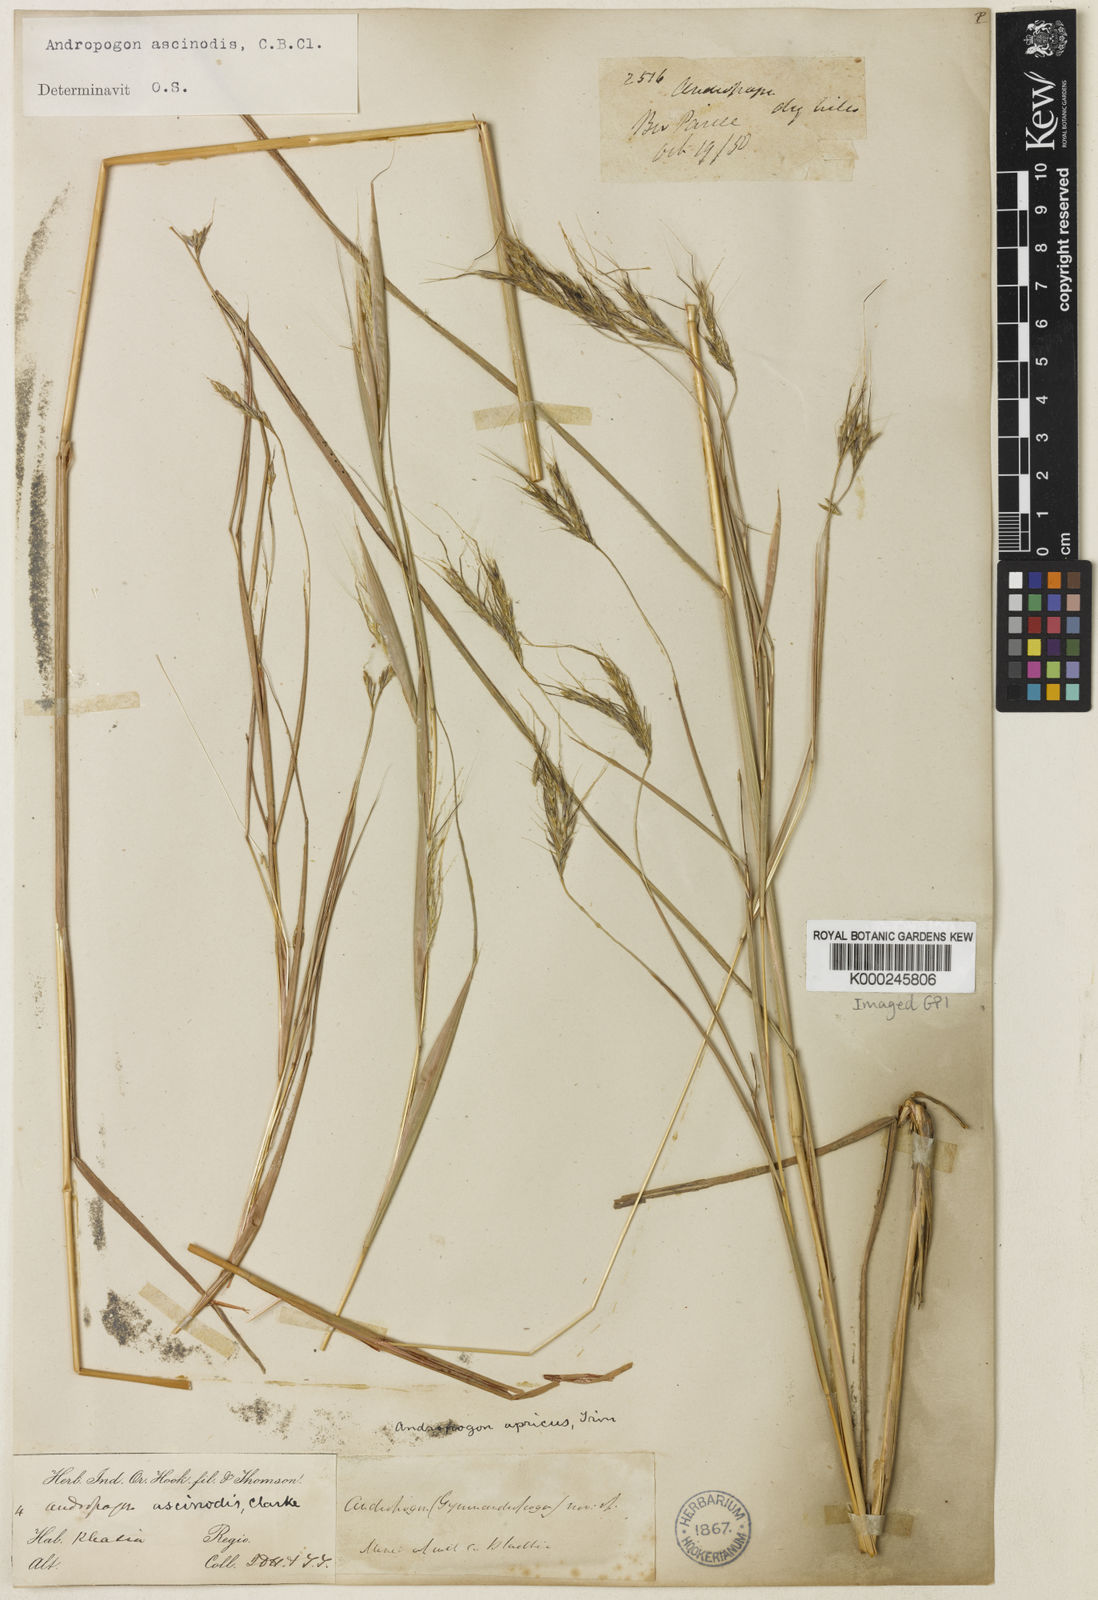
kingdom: Plantae
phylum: Tracheophyta
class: Liliopsida
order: Poales
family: Poaceae
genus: Andropogon
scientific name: Andropogon chinensis
